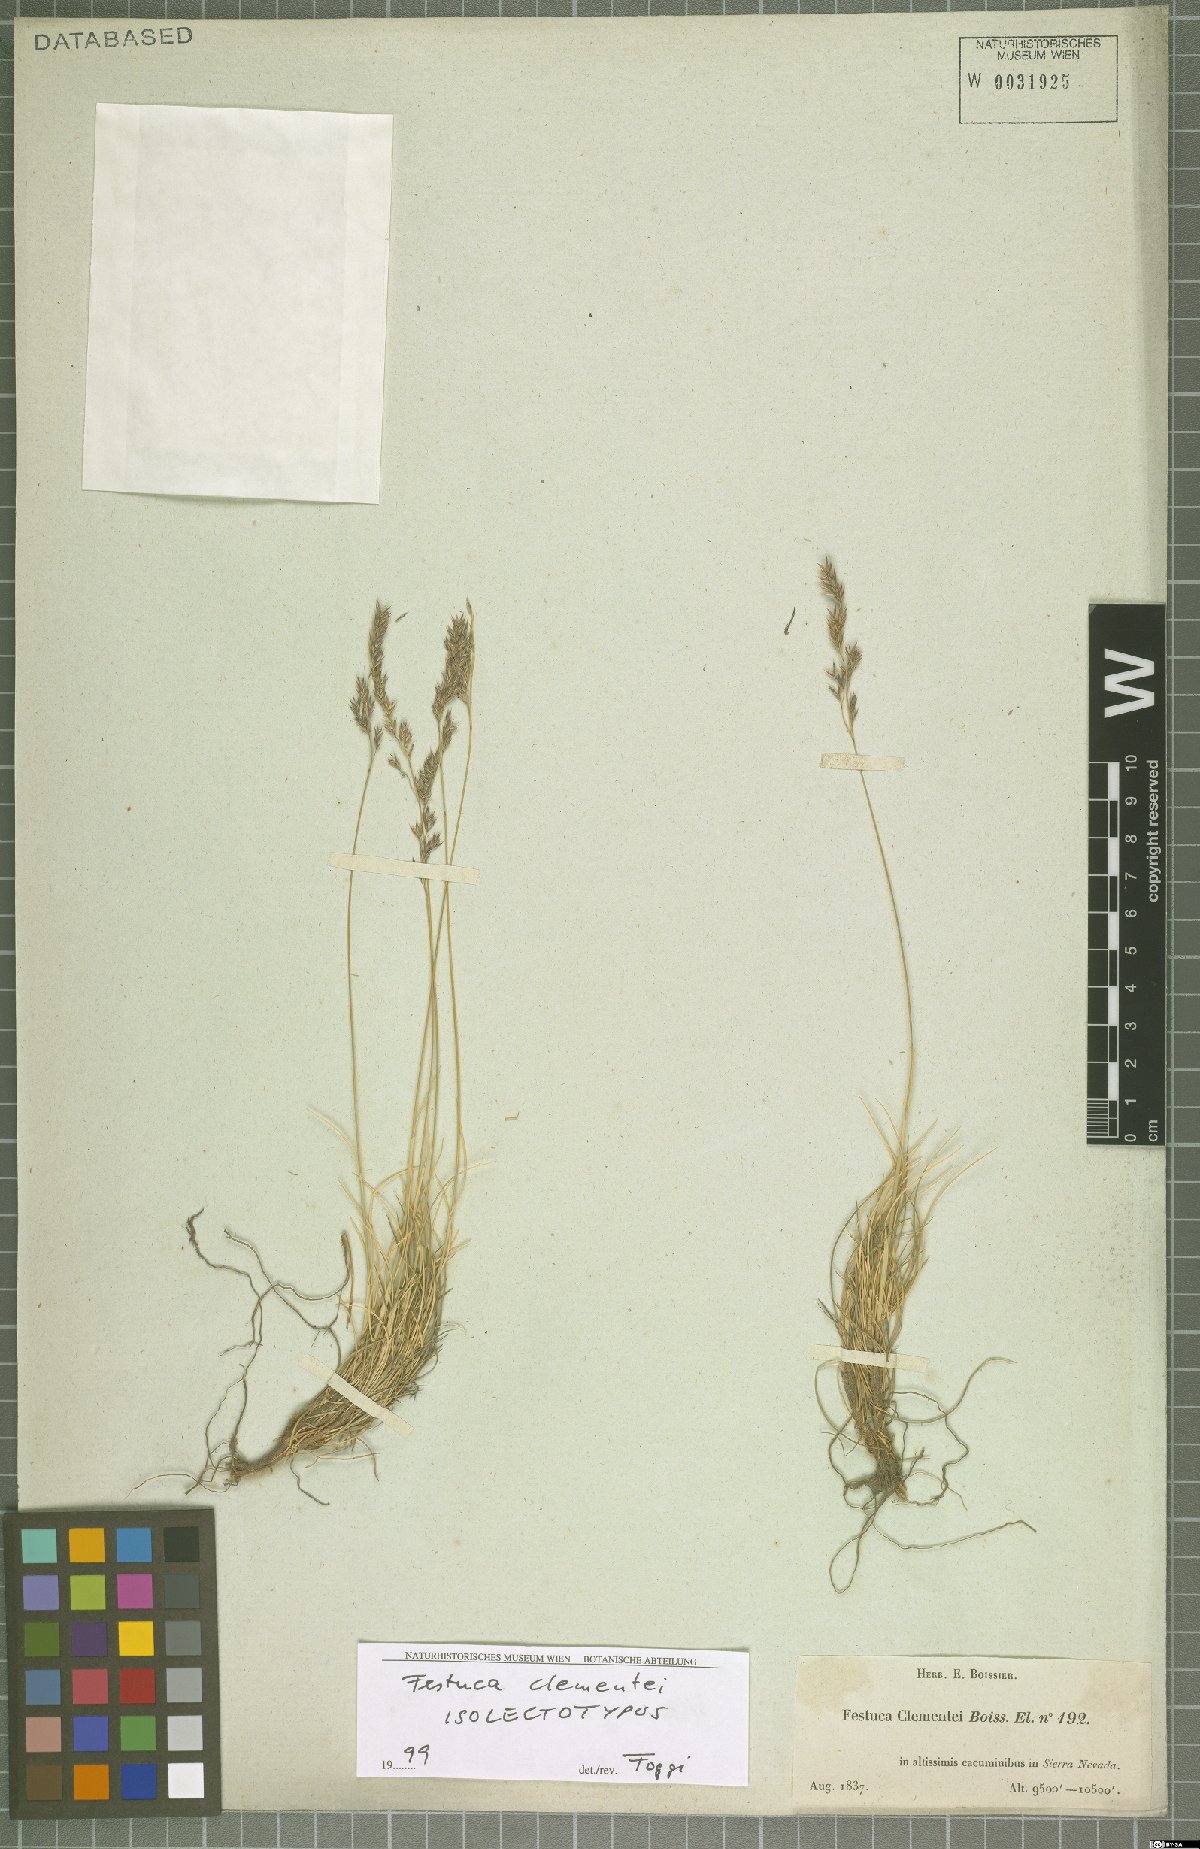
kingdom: Plantae
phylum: Tracheophyta
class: Liliopsida
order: Poales
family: Poaceae
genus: Festuca
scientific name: Festuca clementei
